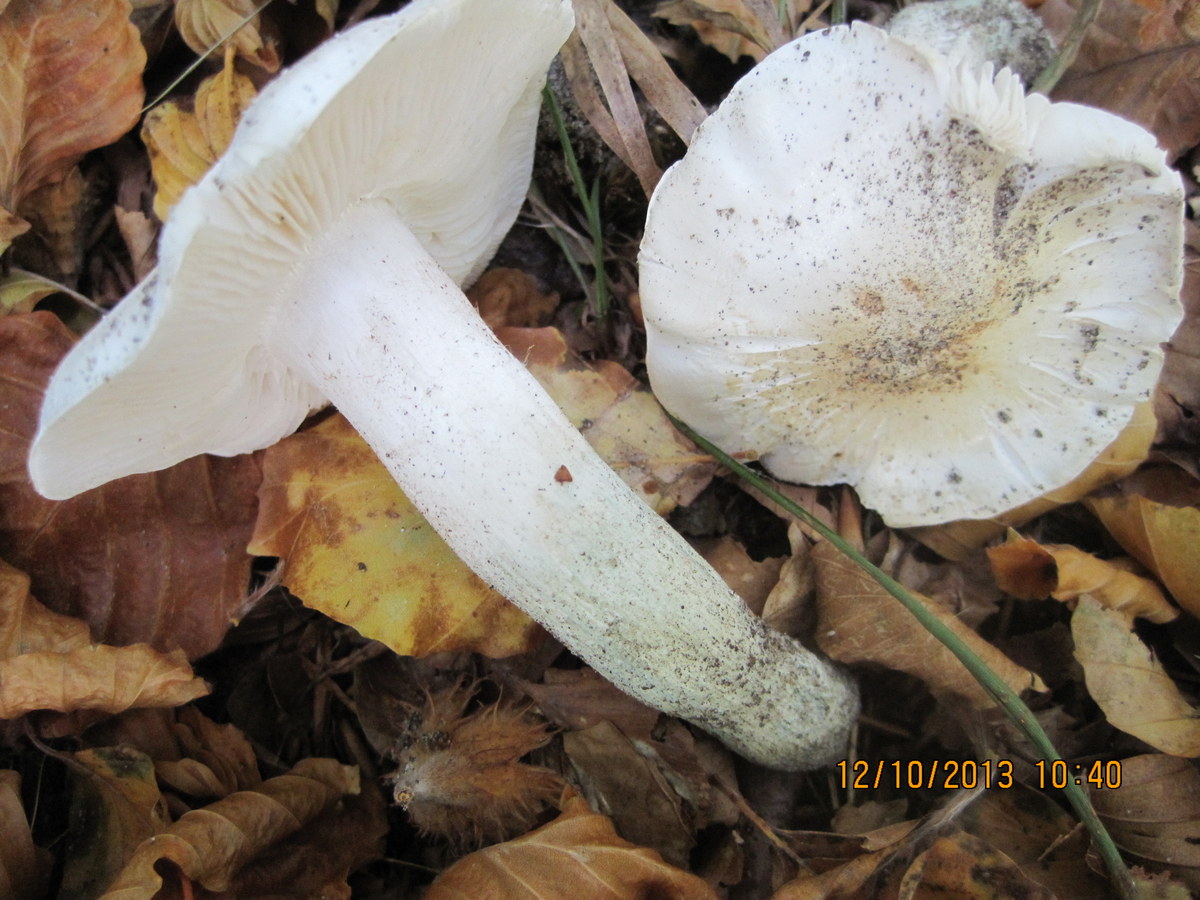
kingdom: Fungi
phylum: Basidiomycota
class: Agaricomycetes
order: Agaricales
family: Tricholomataceae
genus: Tricholoma
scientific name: Tricholoma columbetta
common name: silke-ridderhat
